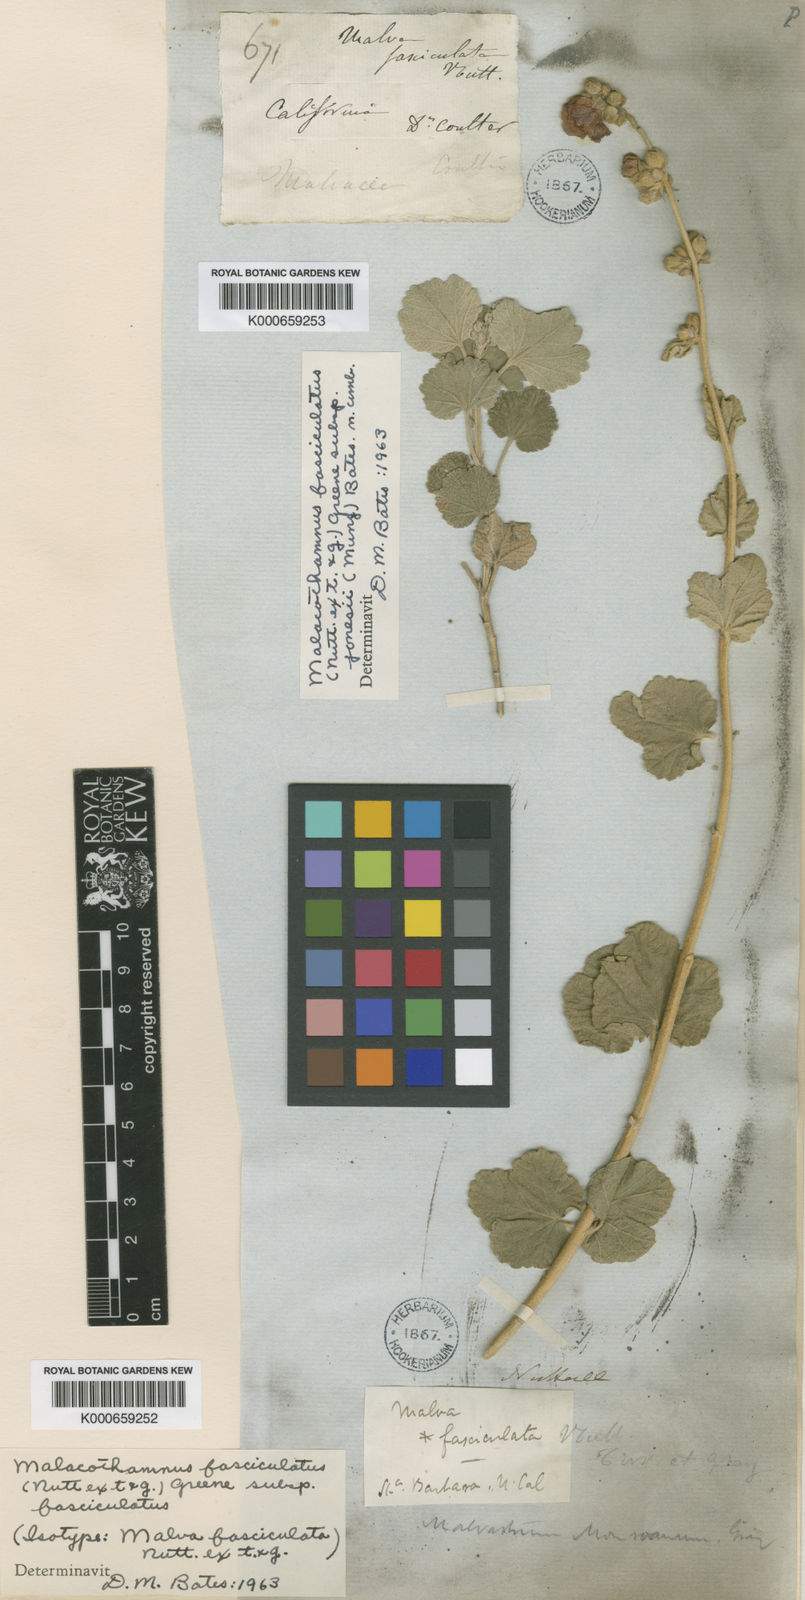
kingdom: Plantae
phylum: Tracheophyta
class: Magnoliopsida
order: Malvales
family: Malvaceae
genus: Malacothamnus
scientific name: Malacothamnus fasciculatus
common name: Sant cruz island bush-mallow
